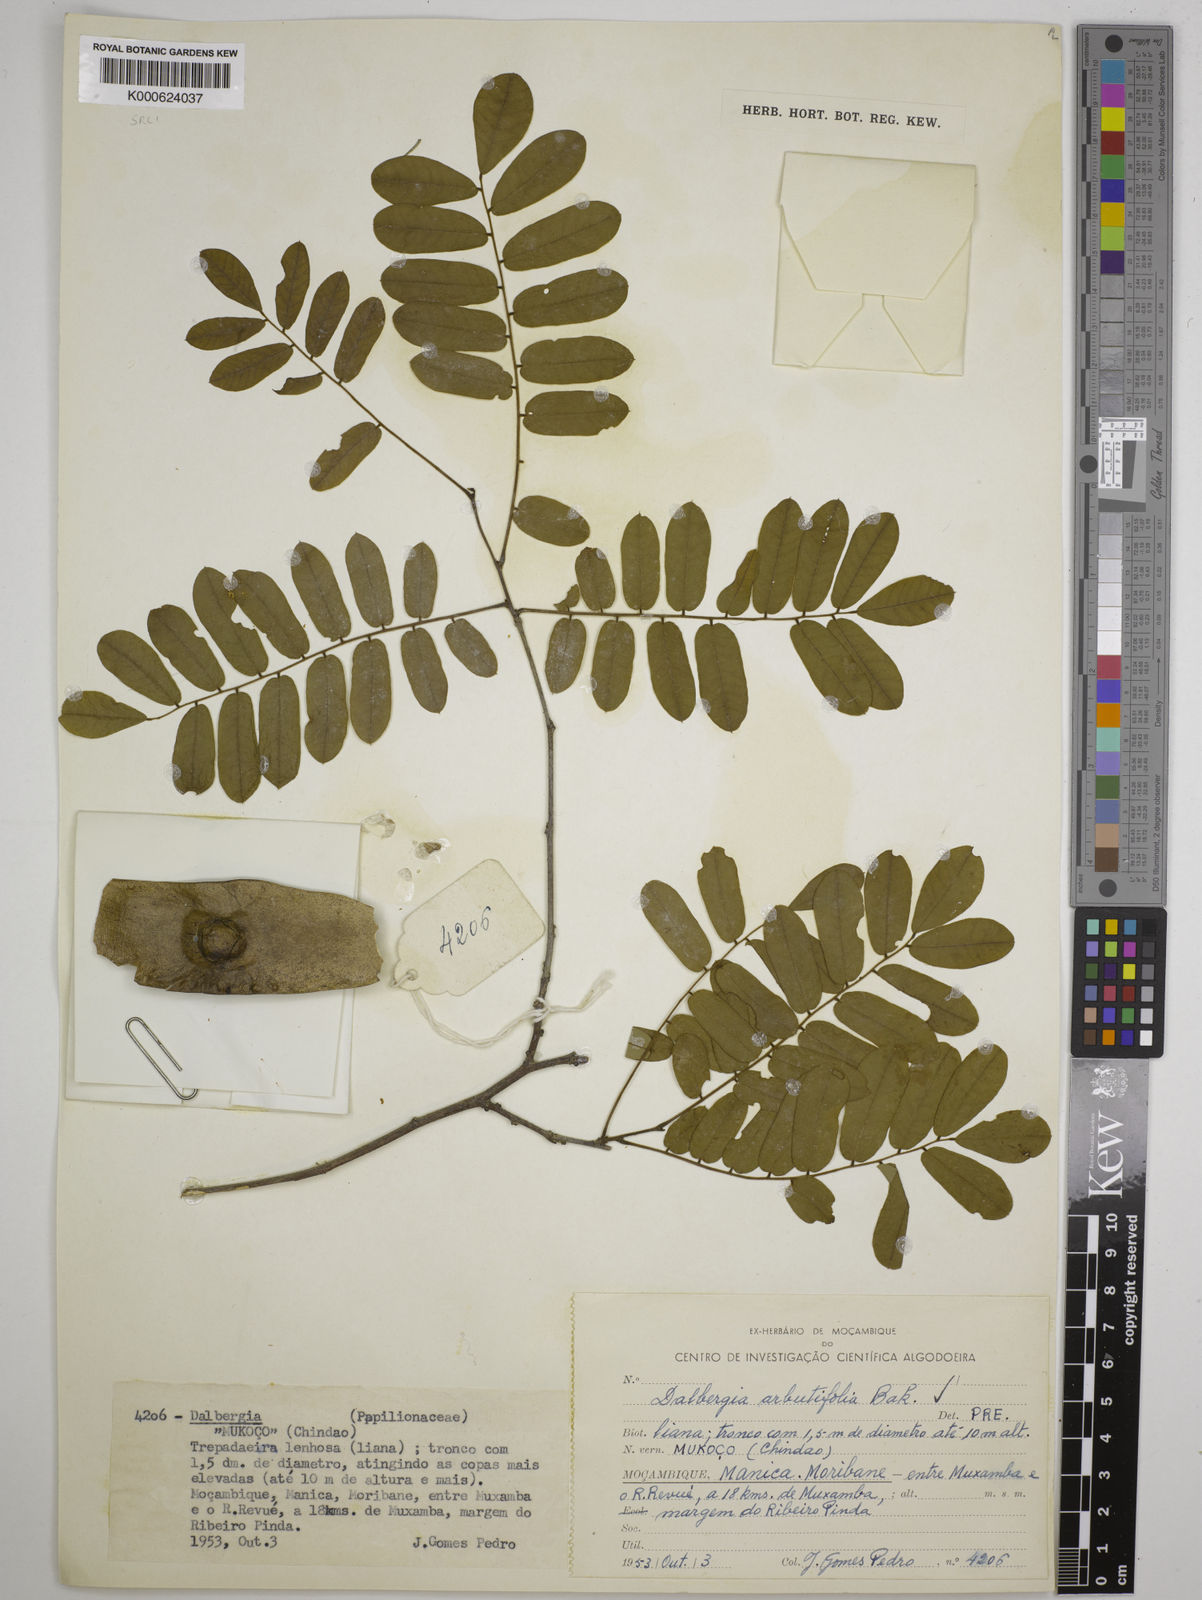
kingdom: Plantae
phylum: Tracheophyta
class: Magnoliopsida
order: Fabales
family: Fabaceae
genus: Dalbergia
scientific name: Dalbergia arbutifolia
